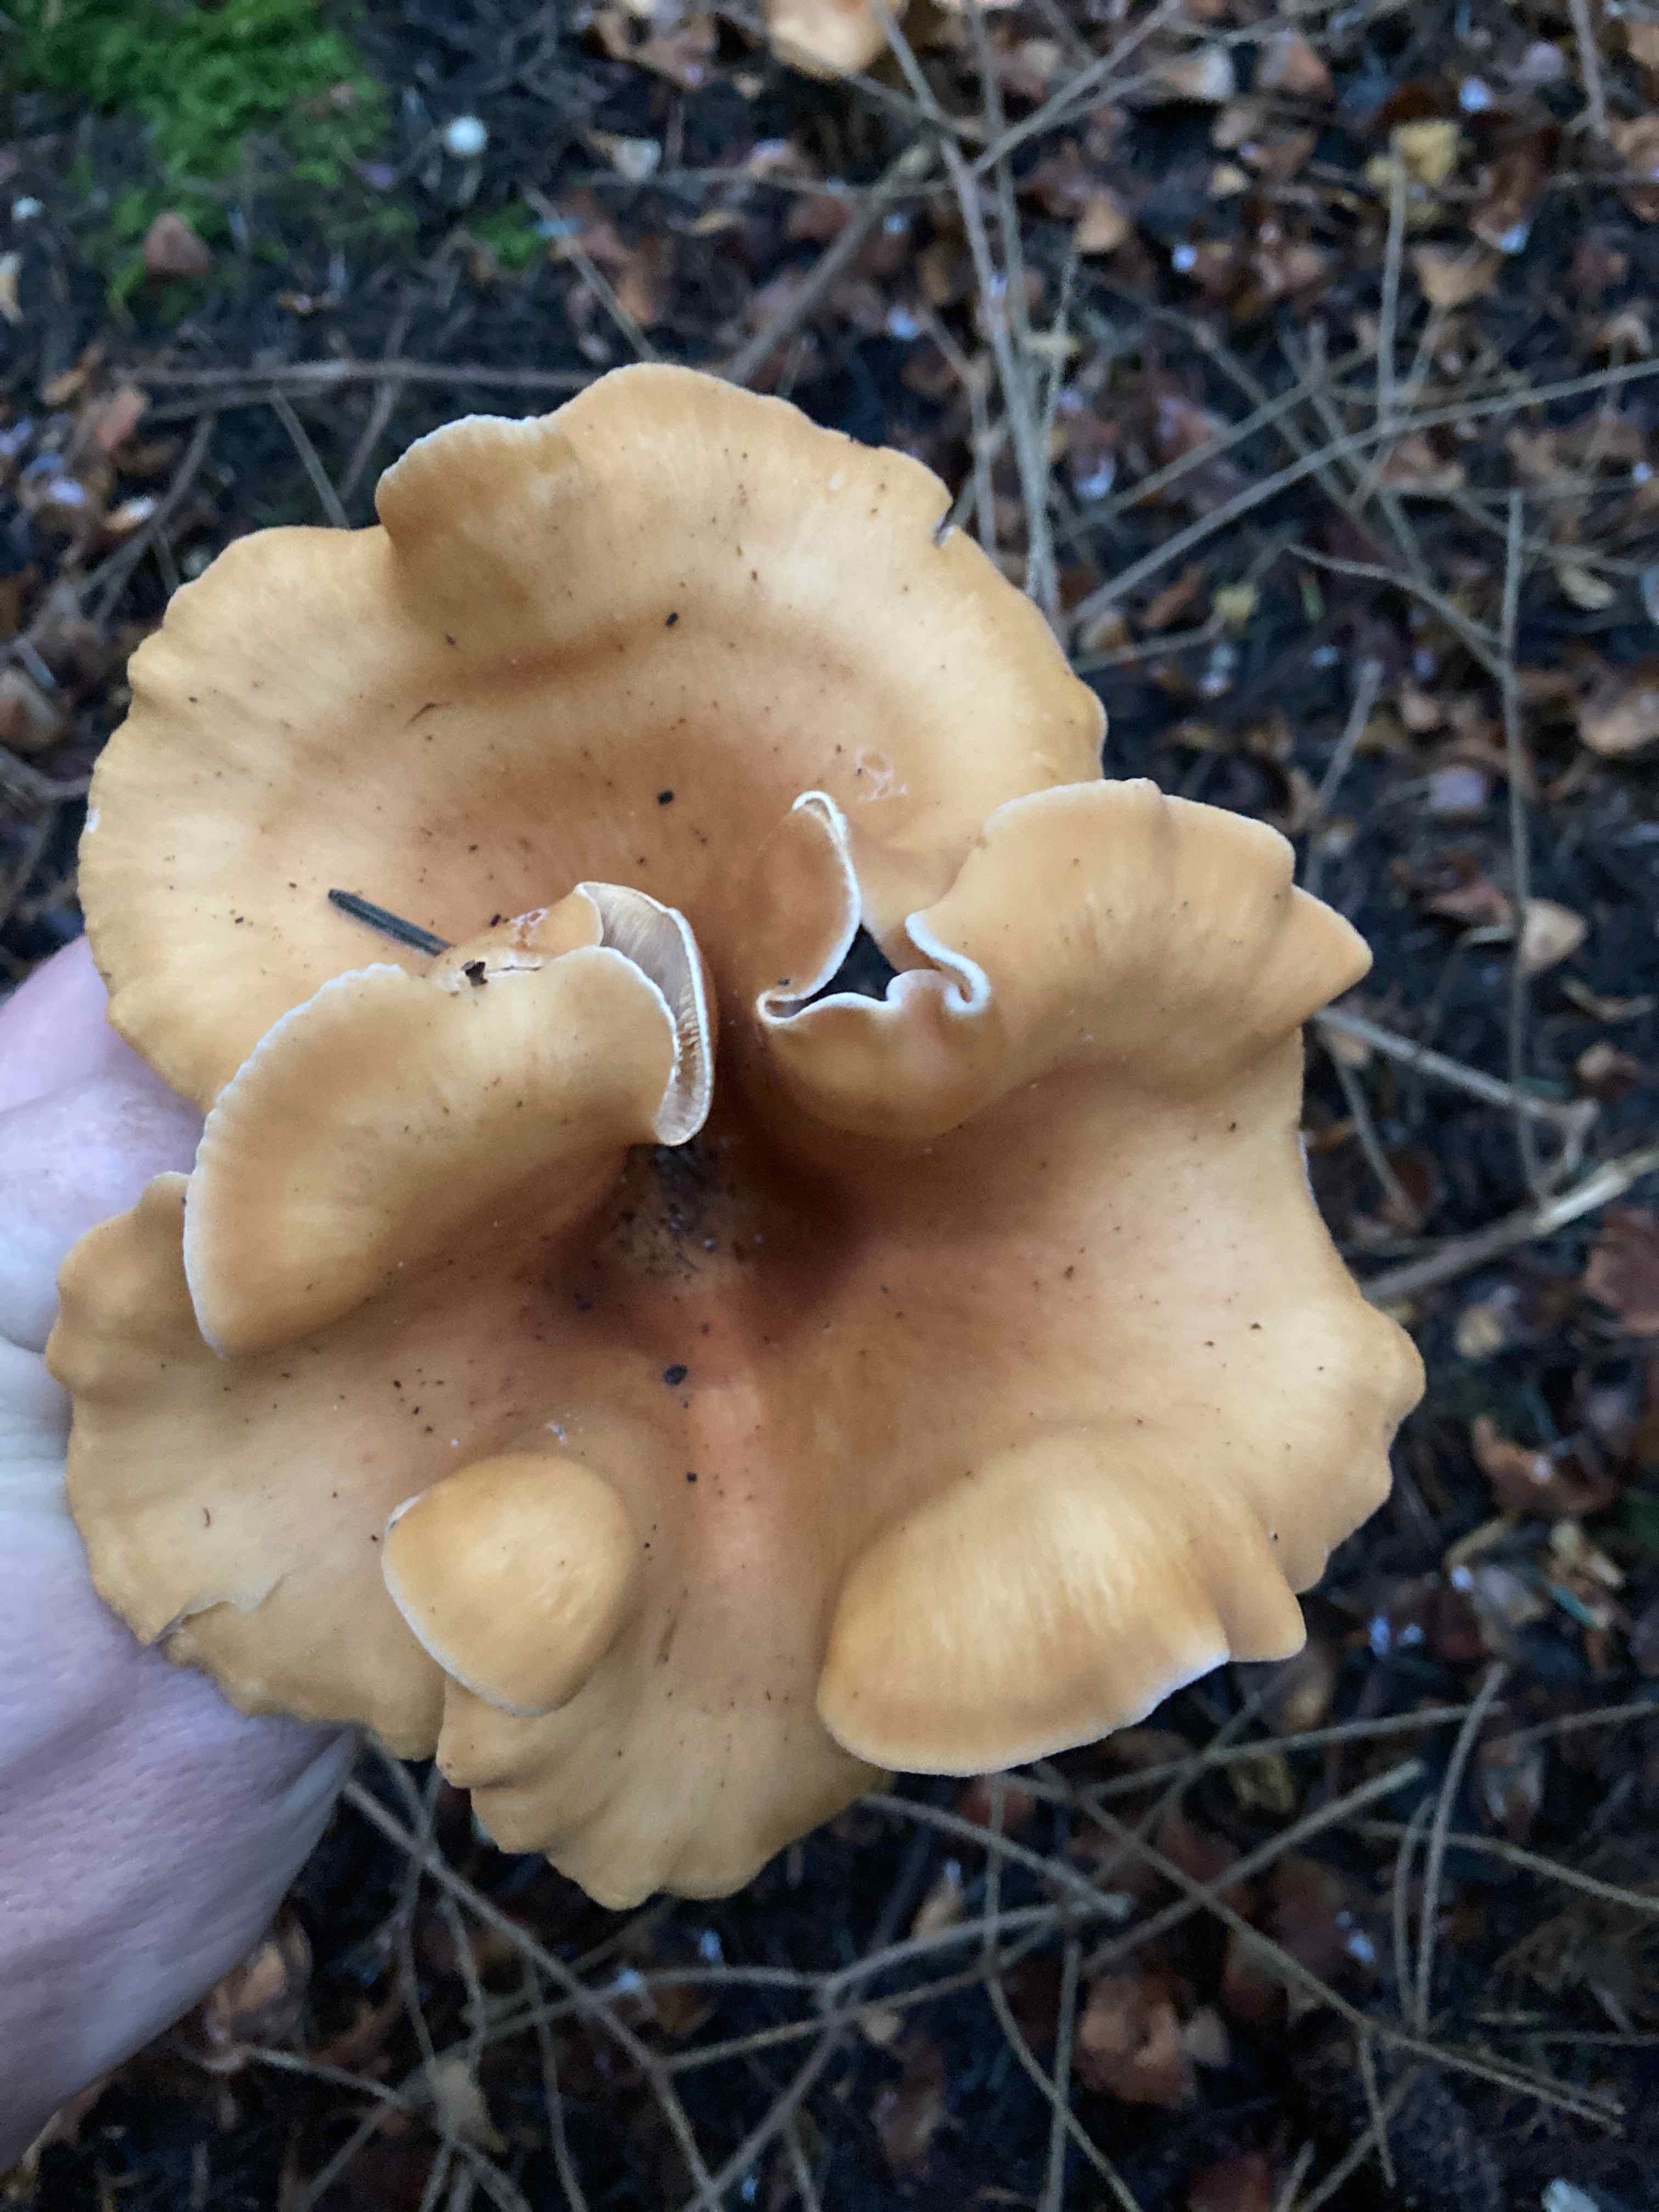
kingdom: Fungi
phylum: Basidiomycota
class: Agaricomycetes
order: Agaricales
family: Tricholomataceae
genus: Paralepista
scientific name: Paralepista flaccida
